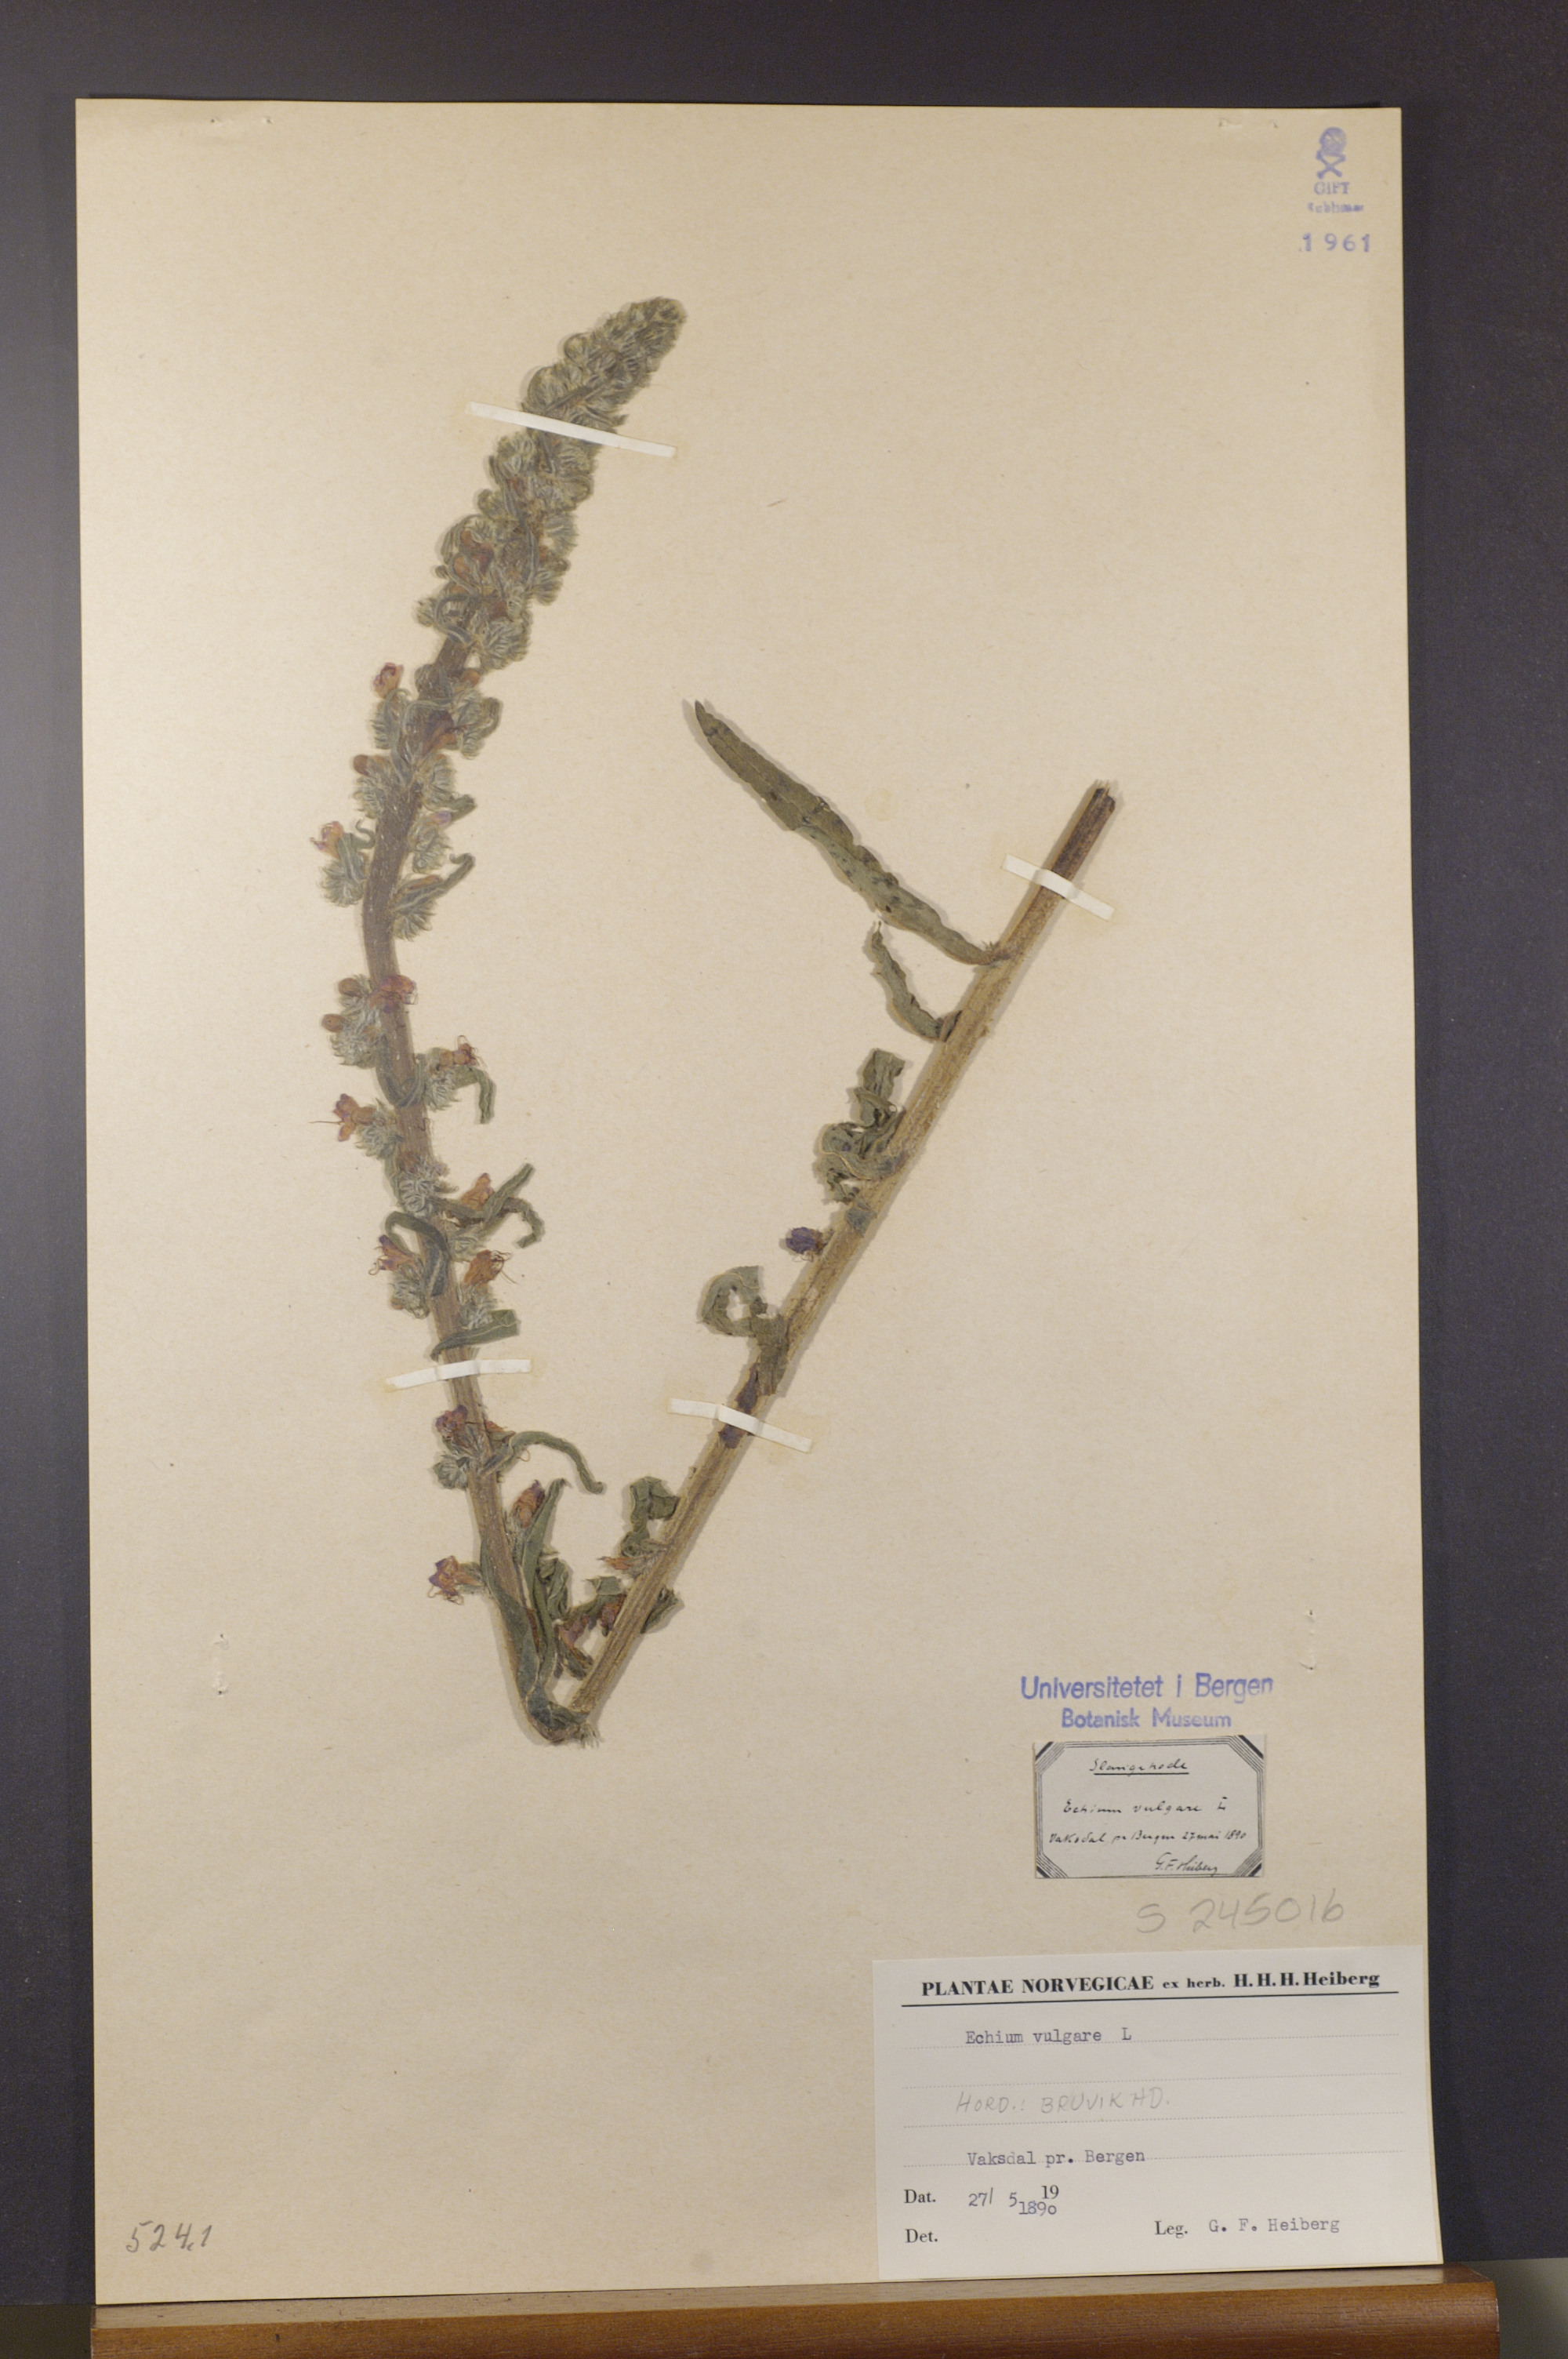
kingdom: Plantae
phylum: Tracheophyta
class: Magnoliopsida
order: Boraginales
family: Boraginaceae
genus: Echium
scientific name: Echium vulgare
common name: Common viper's bugloss
